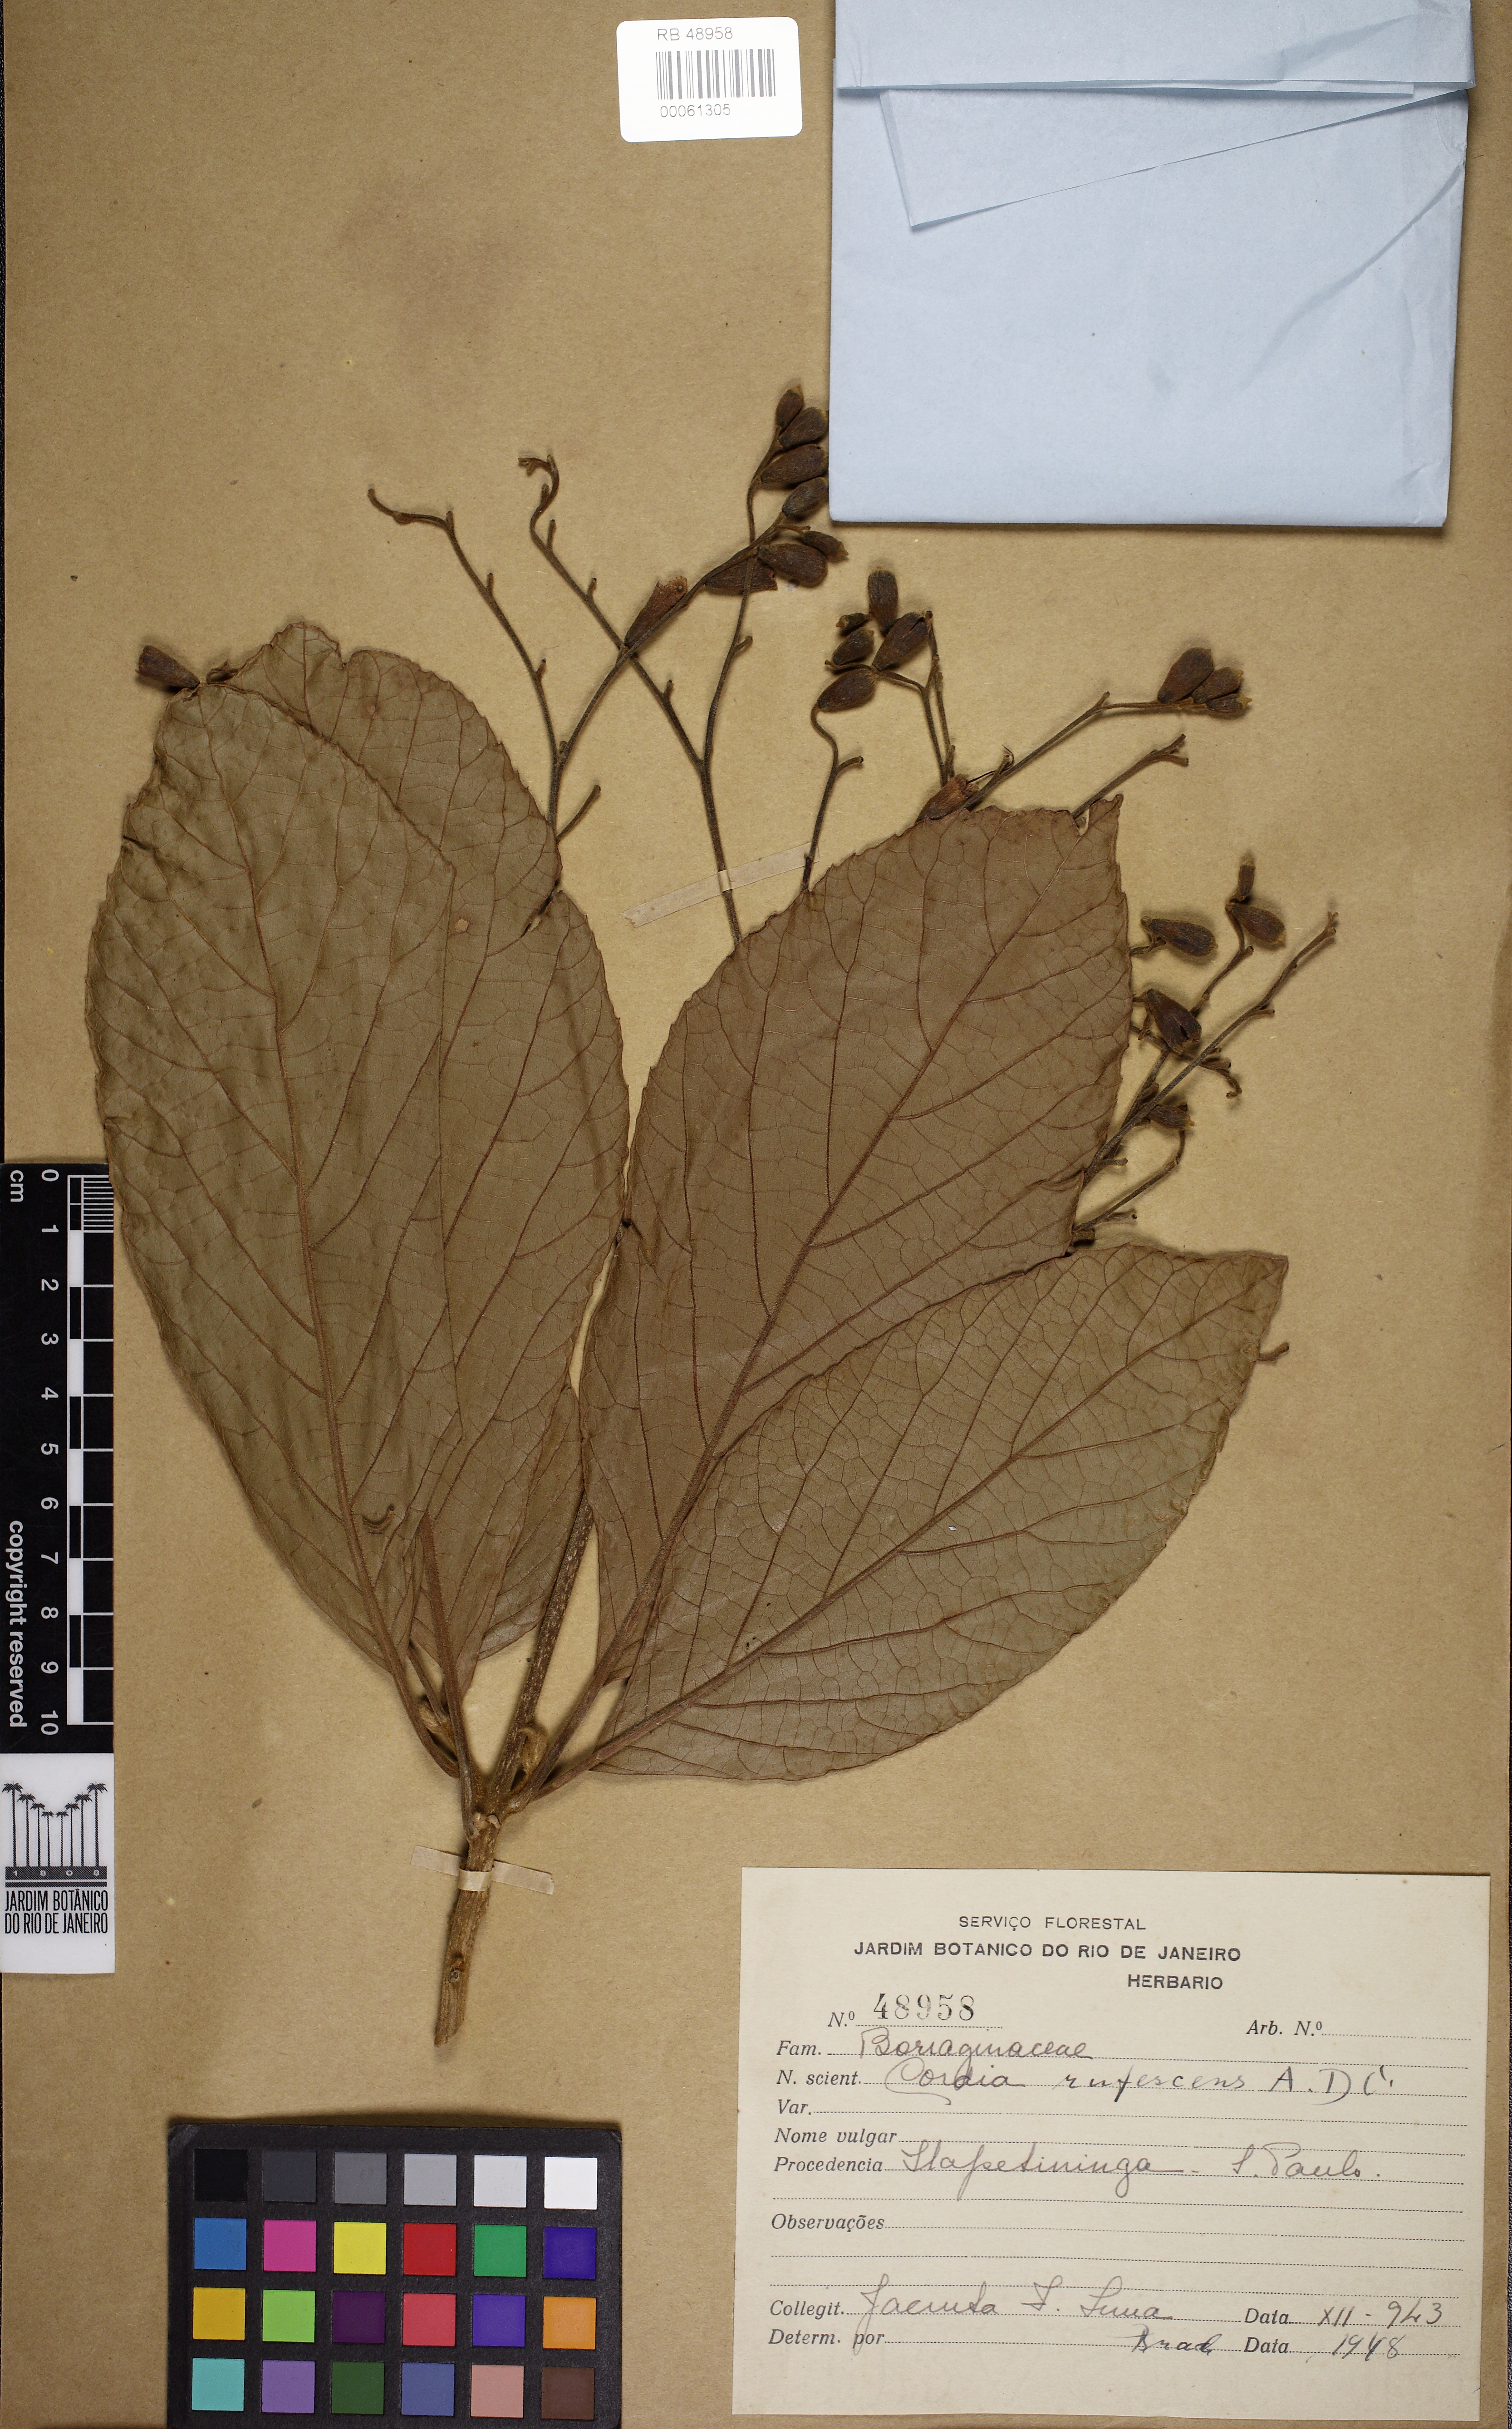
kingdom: Plantae
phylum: Tracheophyta
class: Magnoliopsida
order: Boraginales
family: Cordiaceae
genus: Cordia
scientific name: Cordia rufescens
